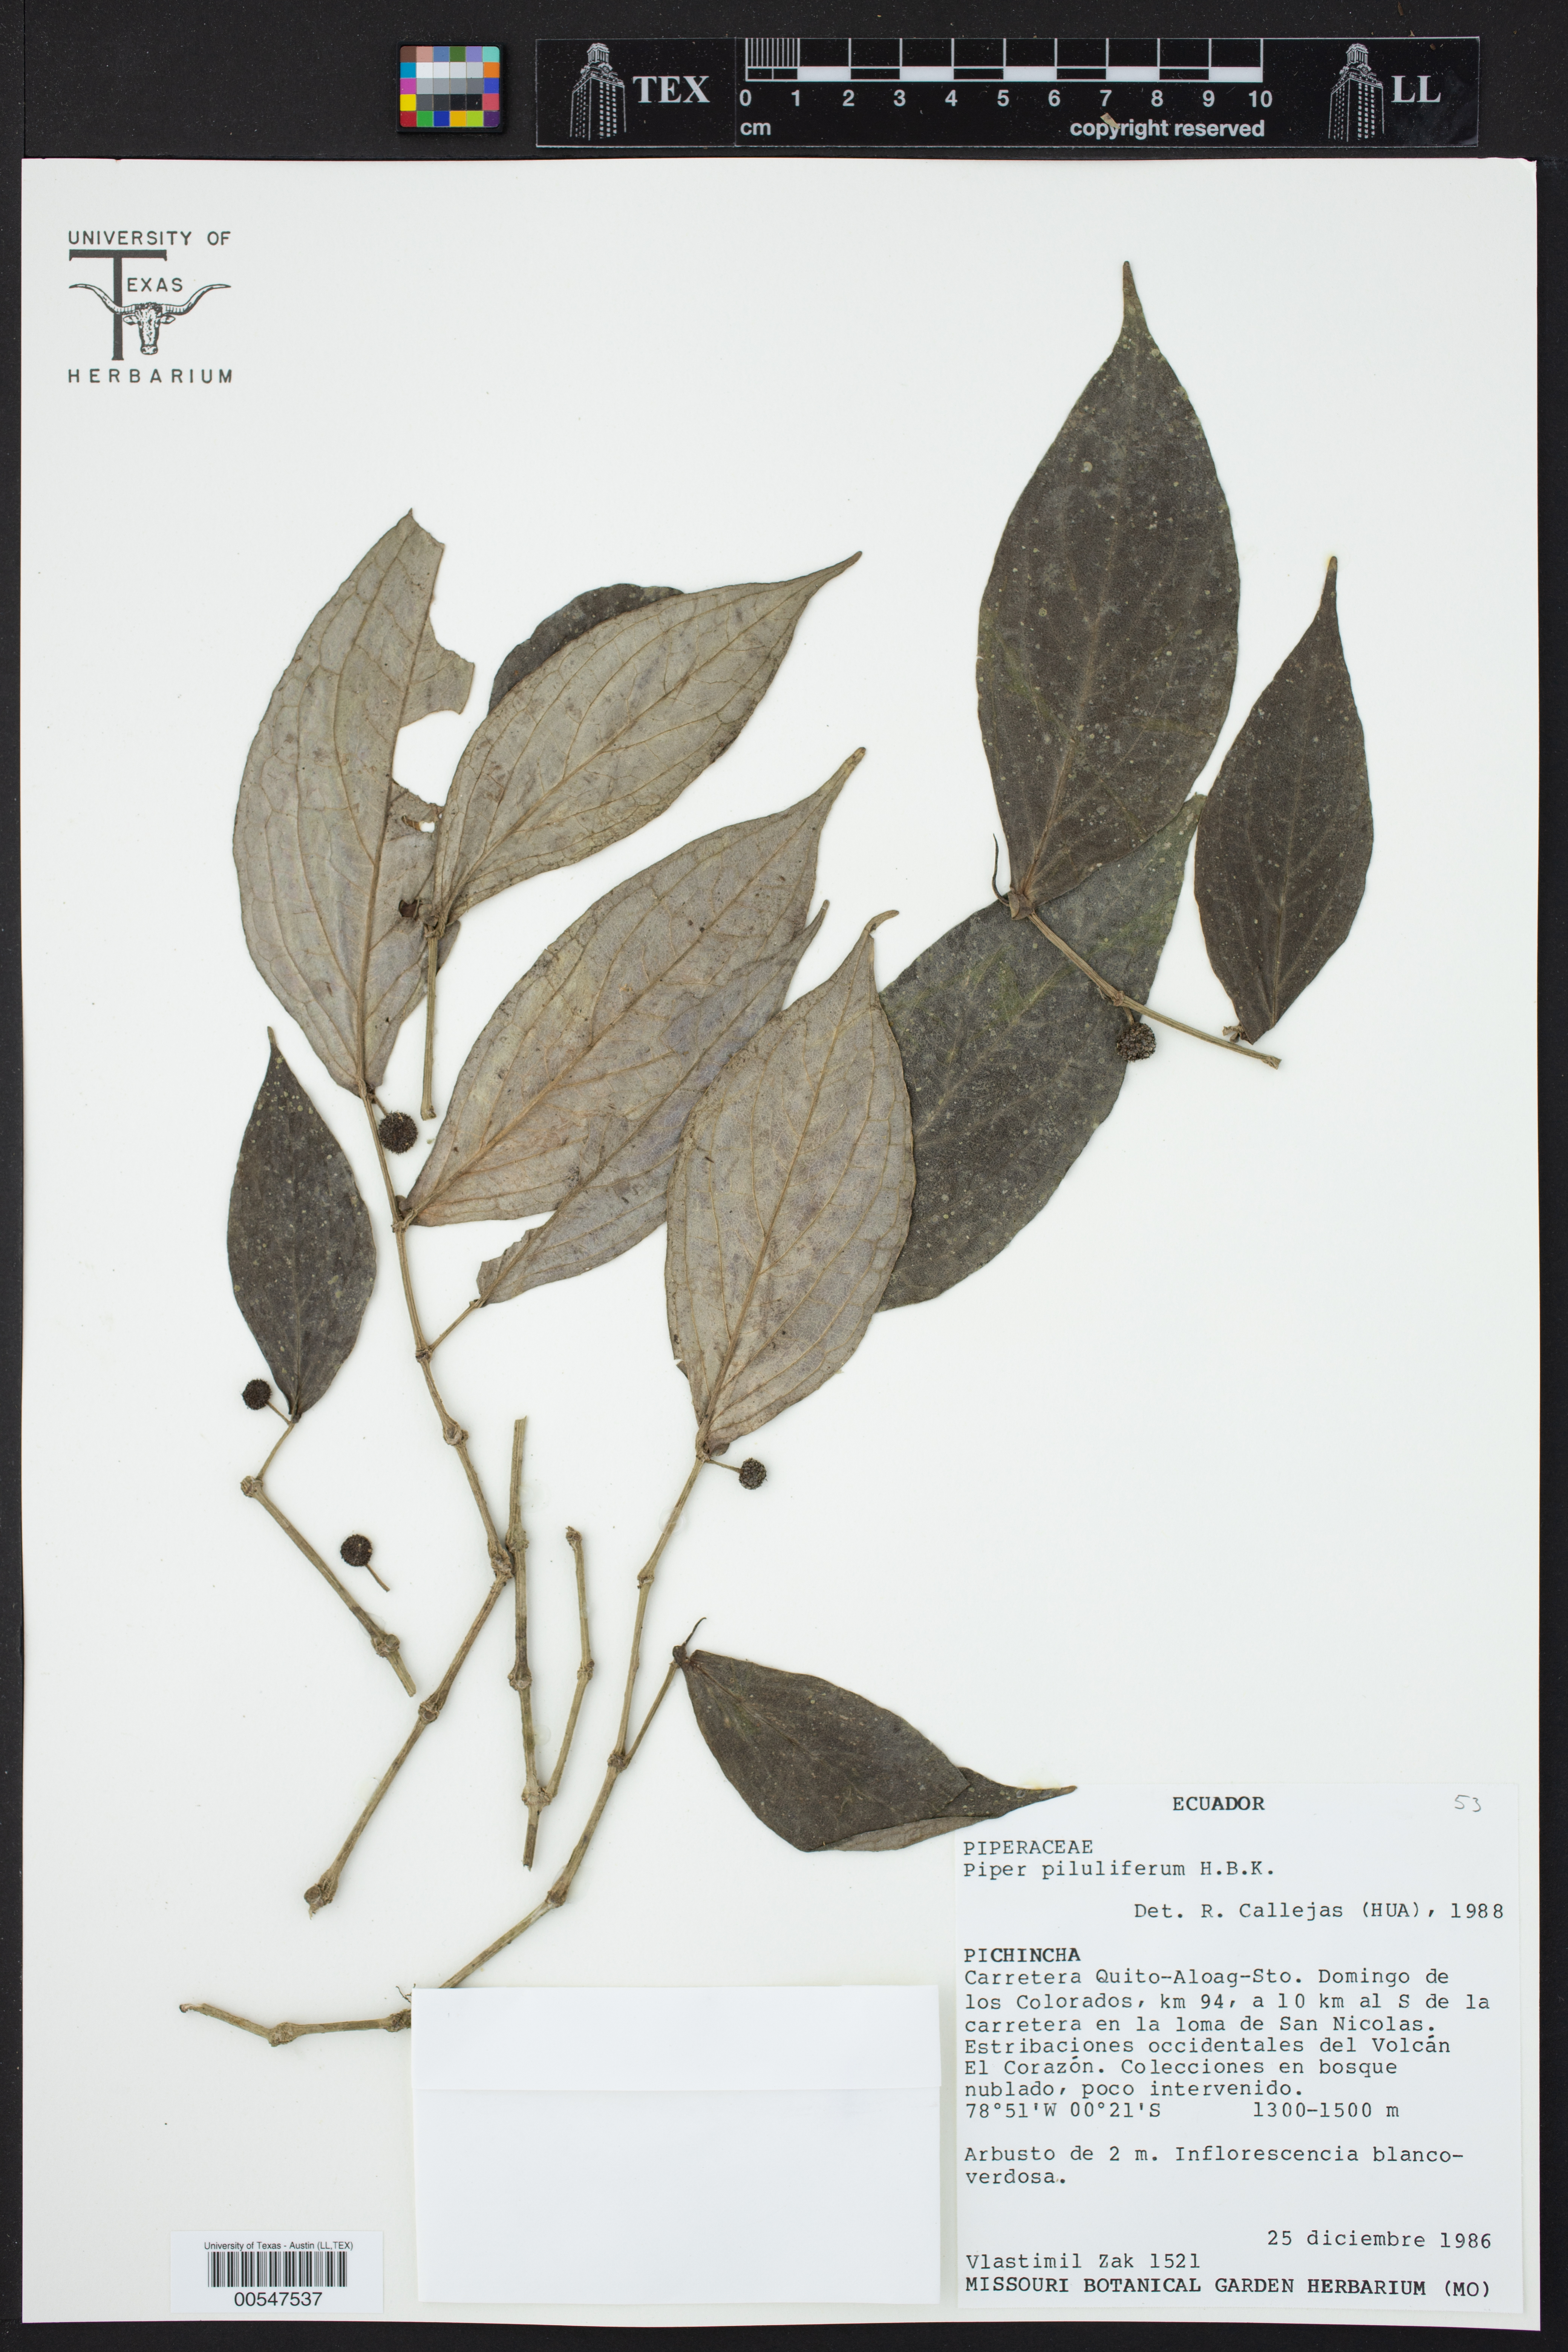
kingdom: Plantae
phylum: Tracheophyta
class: Magnoliopsida
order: Piperales
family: Piperaceae
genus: Piper
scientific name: Piper piluliferum
